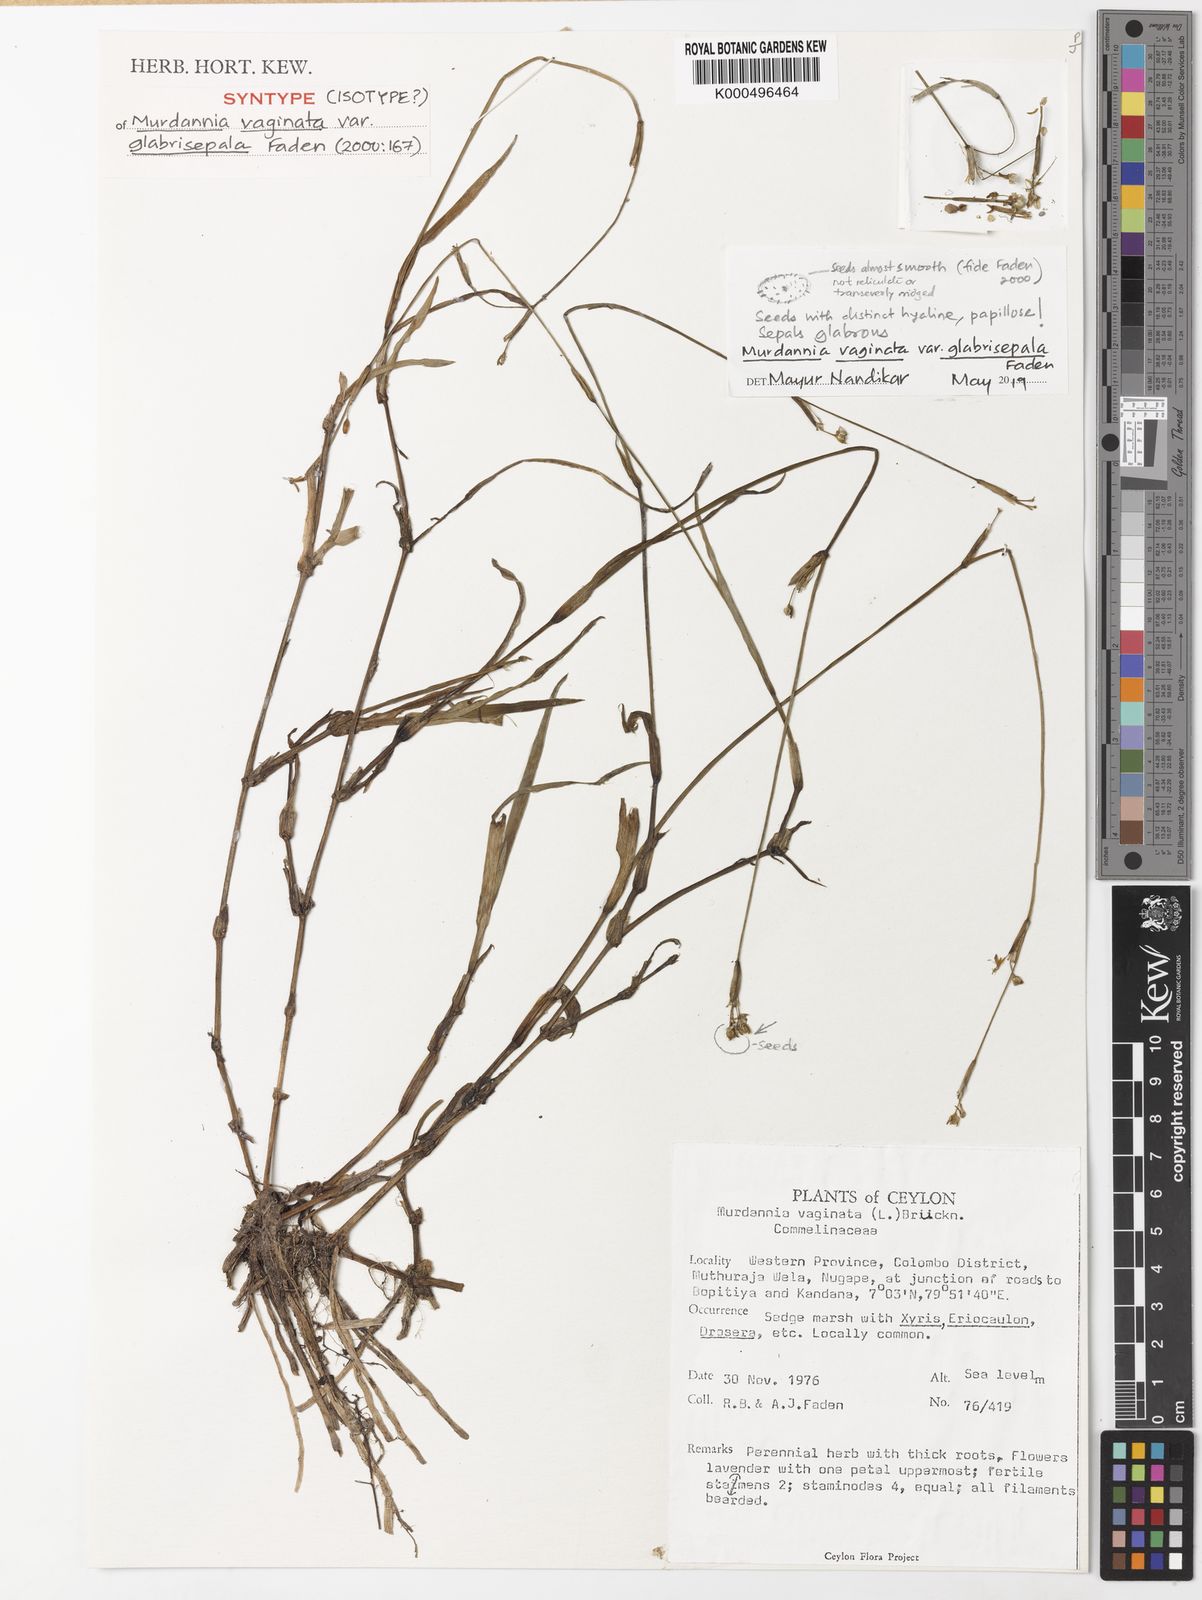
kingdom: Plantae
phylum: Tracheophyta
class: Liliopsida
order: Commelinales
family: Commelinaceae
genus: Murdannia
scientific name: Murdannia vaginata
